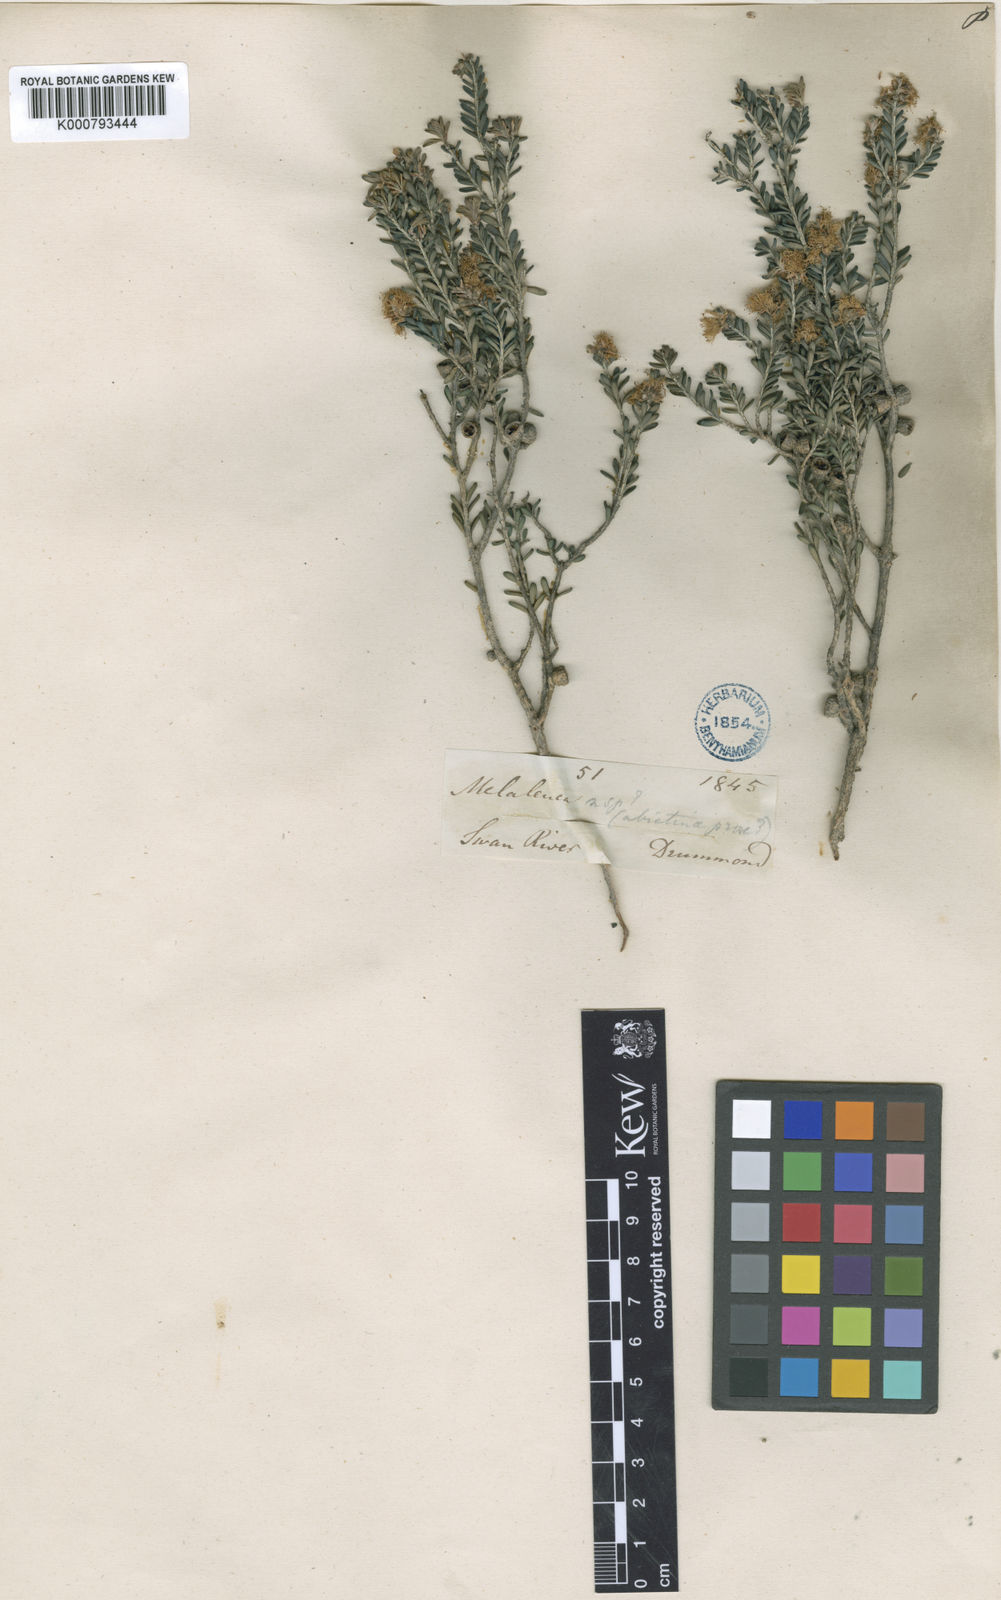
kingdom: Plantae
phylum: Tracheophyta
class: Magnoliopsida
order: Myrtales
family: Myrtaceae
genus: Melaleuca
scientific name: Melaleuca halmaturorum
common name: Coastal paper-bark
